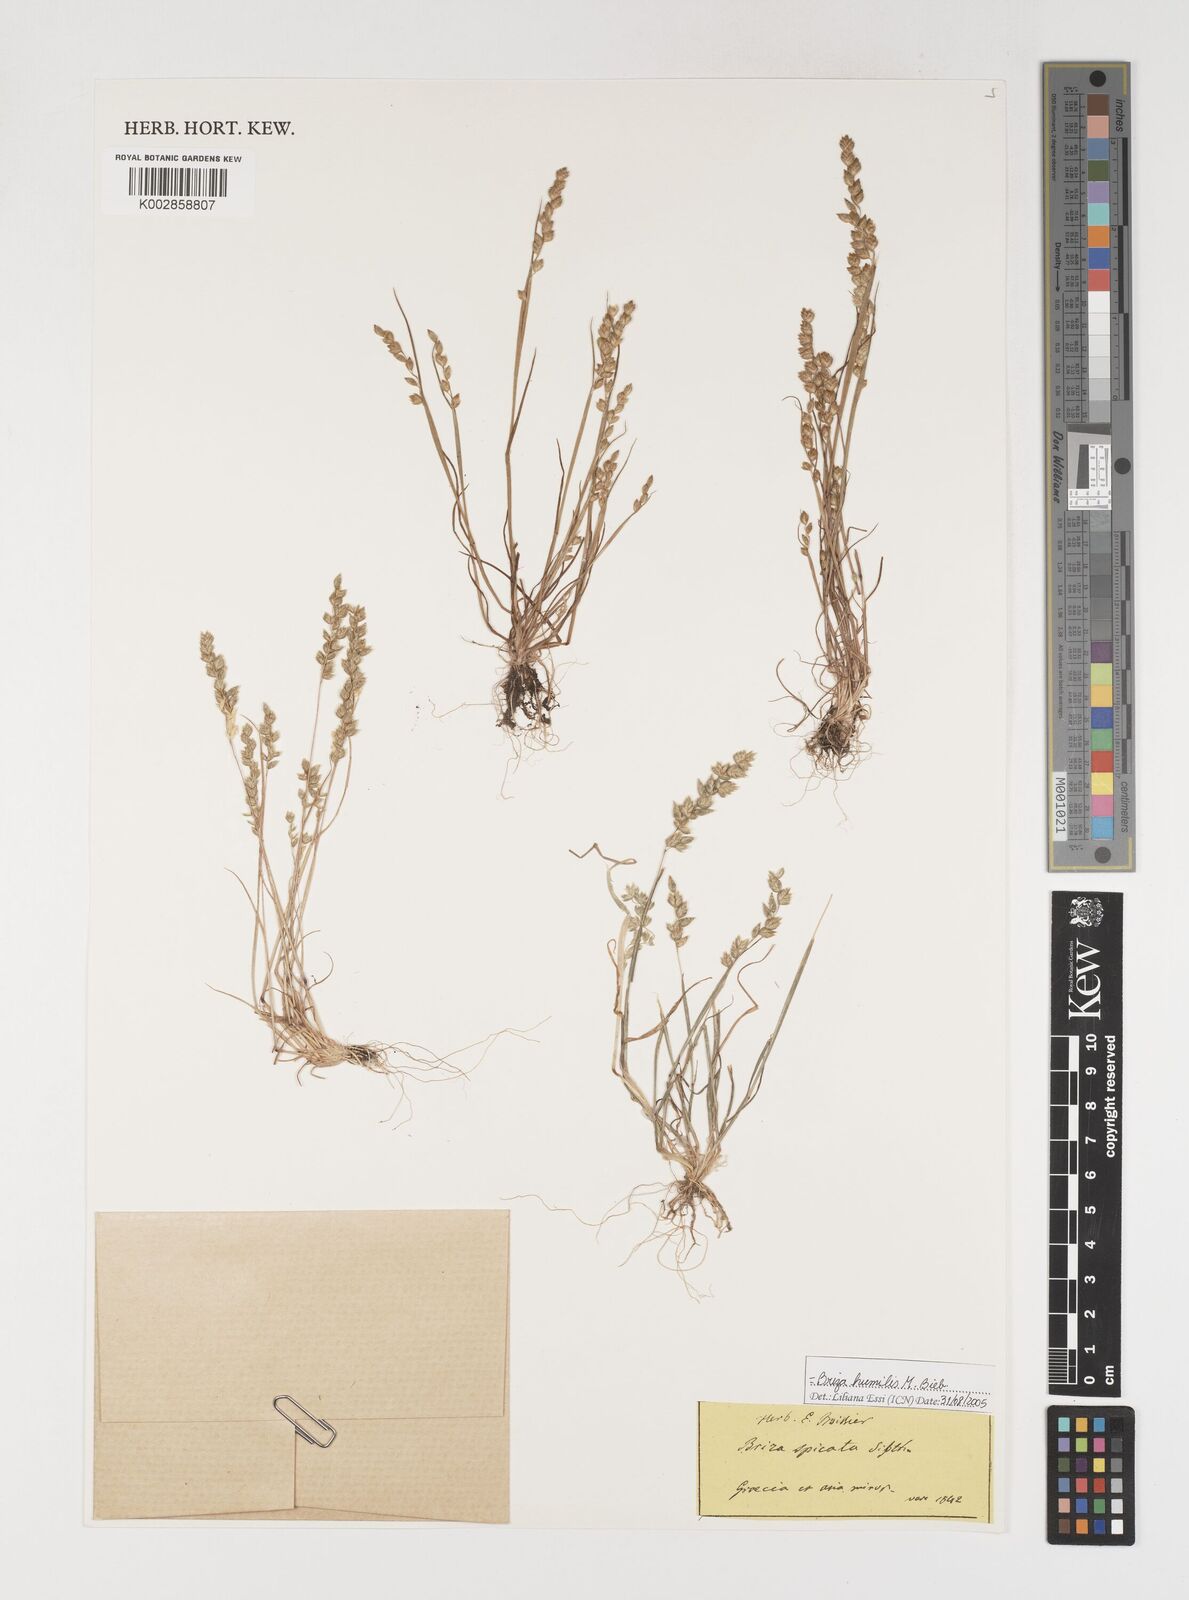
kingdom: Plantae
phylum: Tracheophyta
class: Liliopsida
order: Poales
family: Poaceae
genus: Briza
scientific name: Briza humilis
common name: Spiked quaking grass
